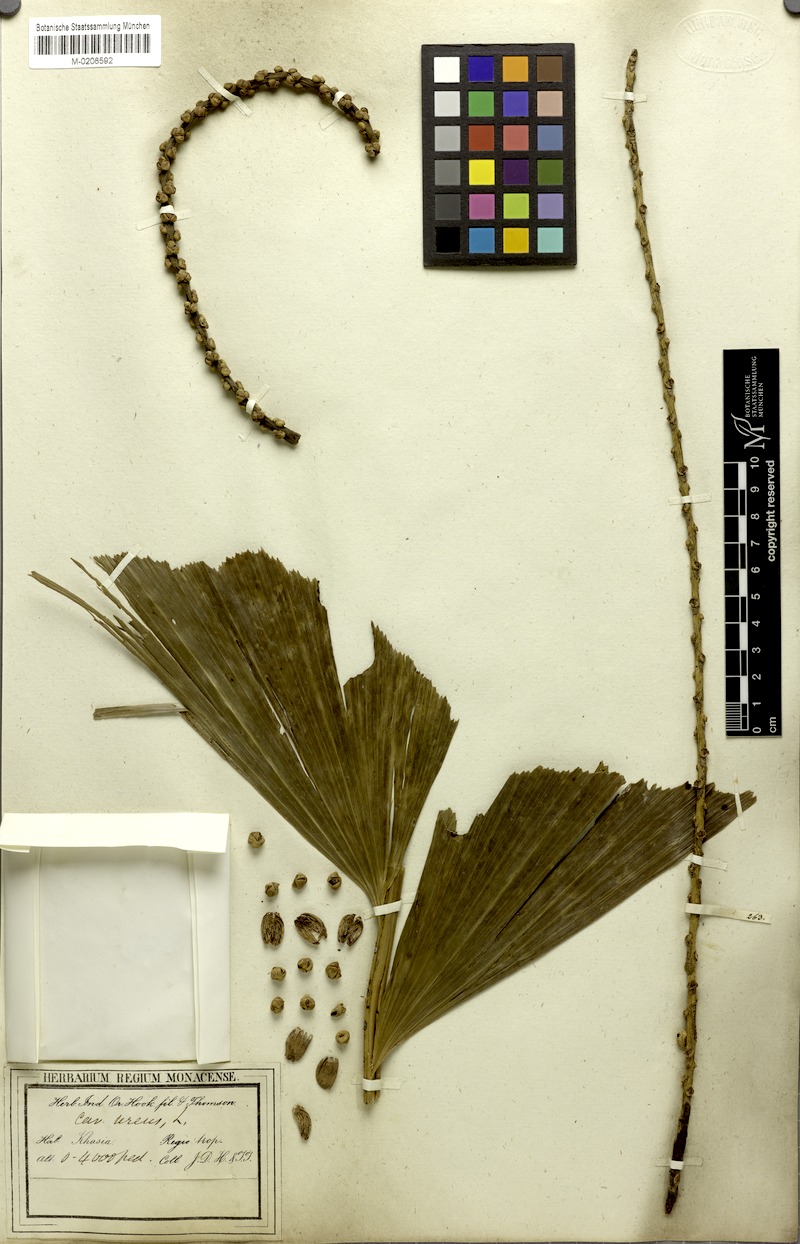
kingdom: Plantae
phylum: Tracheophyta
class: Liliopsida
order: Arecales
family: Arecaceae
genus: Caryota
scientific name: Caryota urens
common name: Jaggery palm
